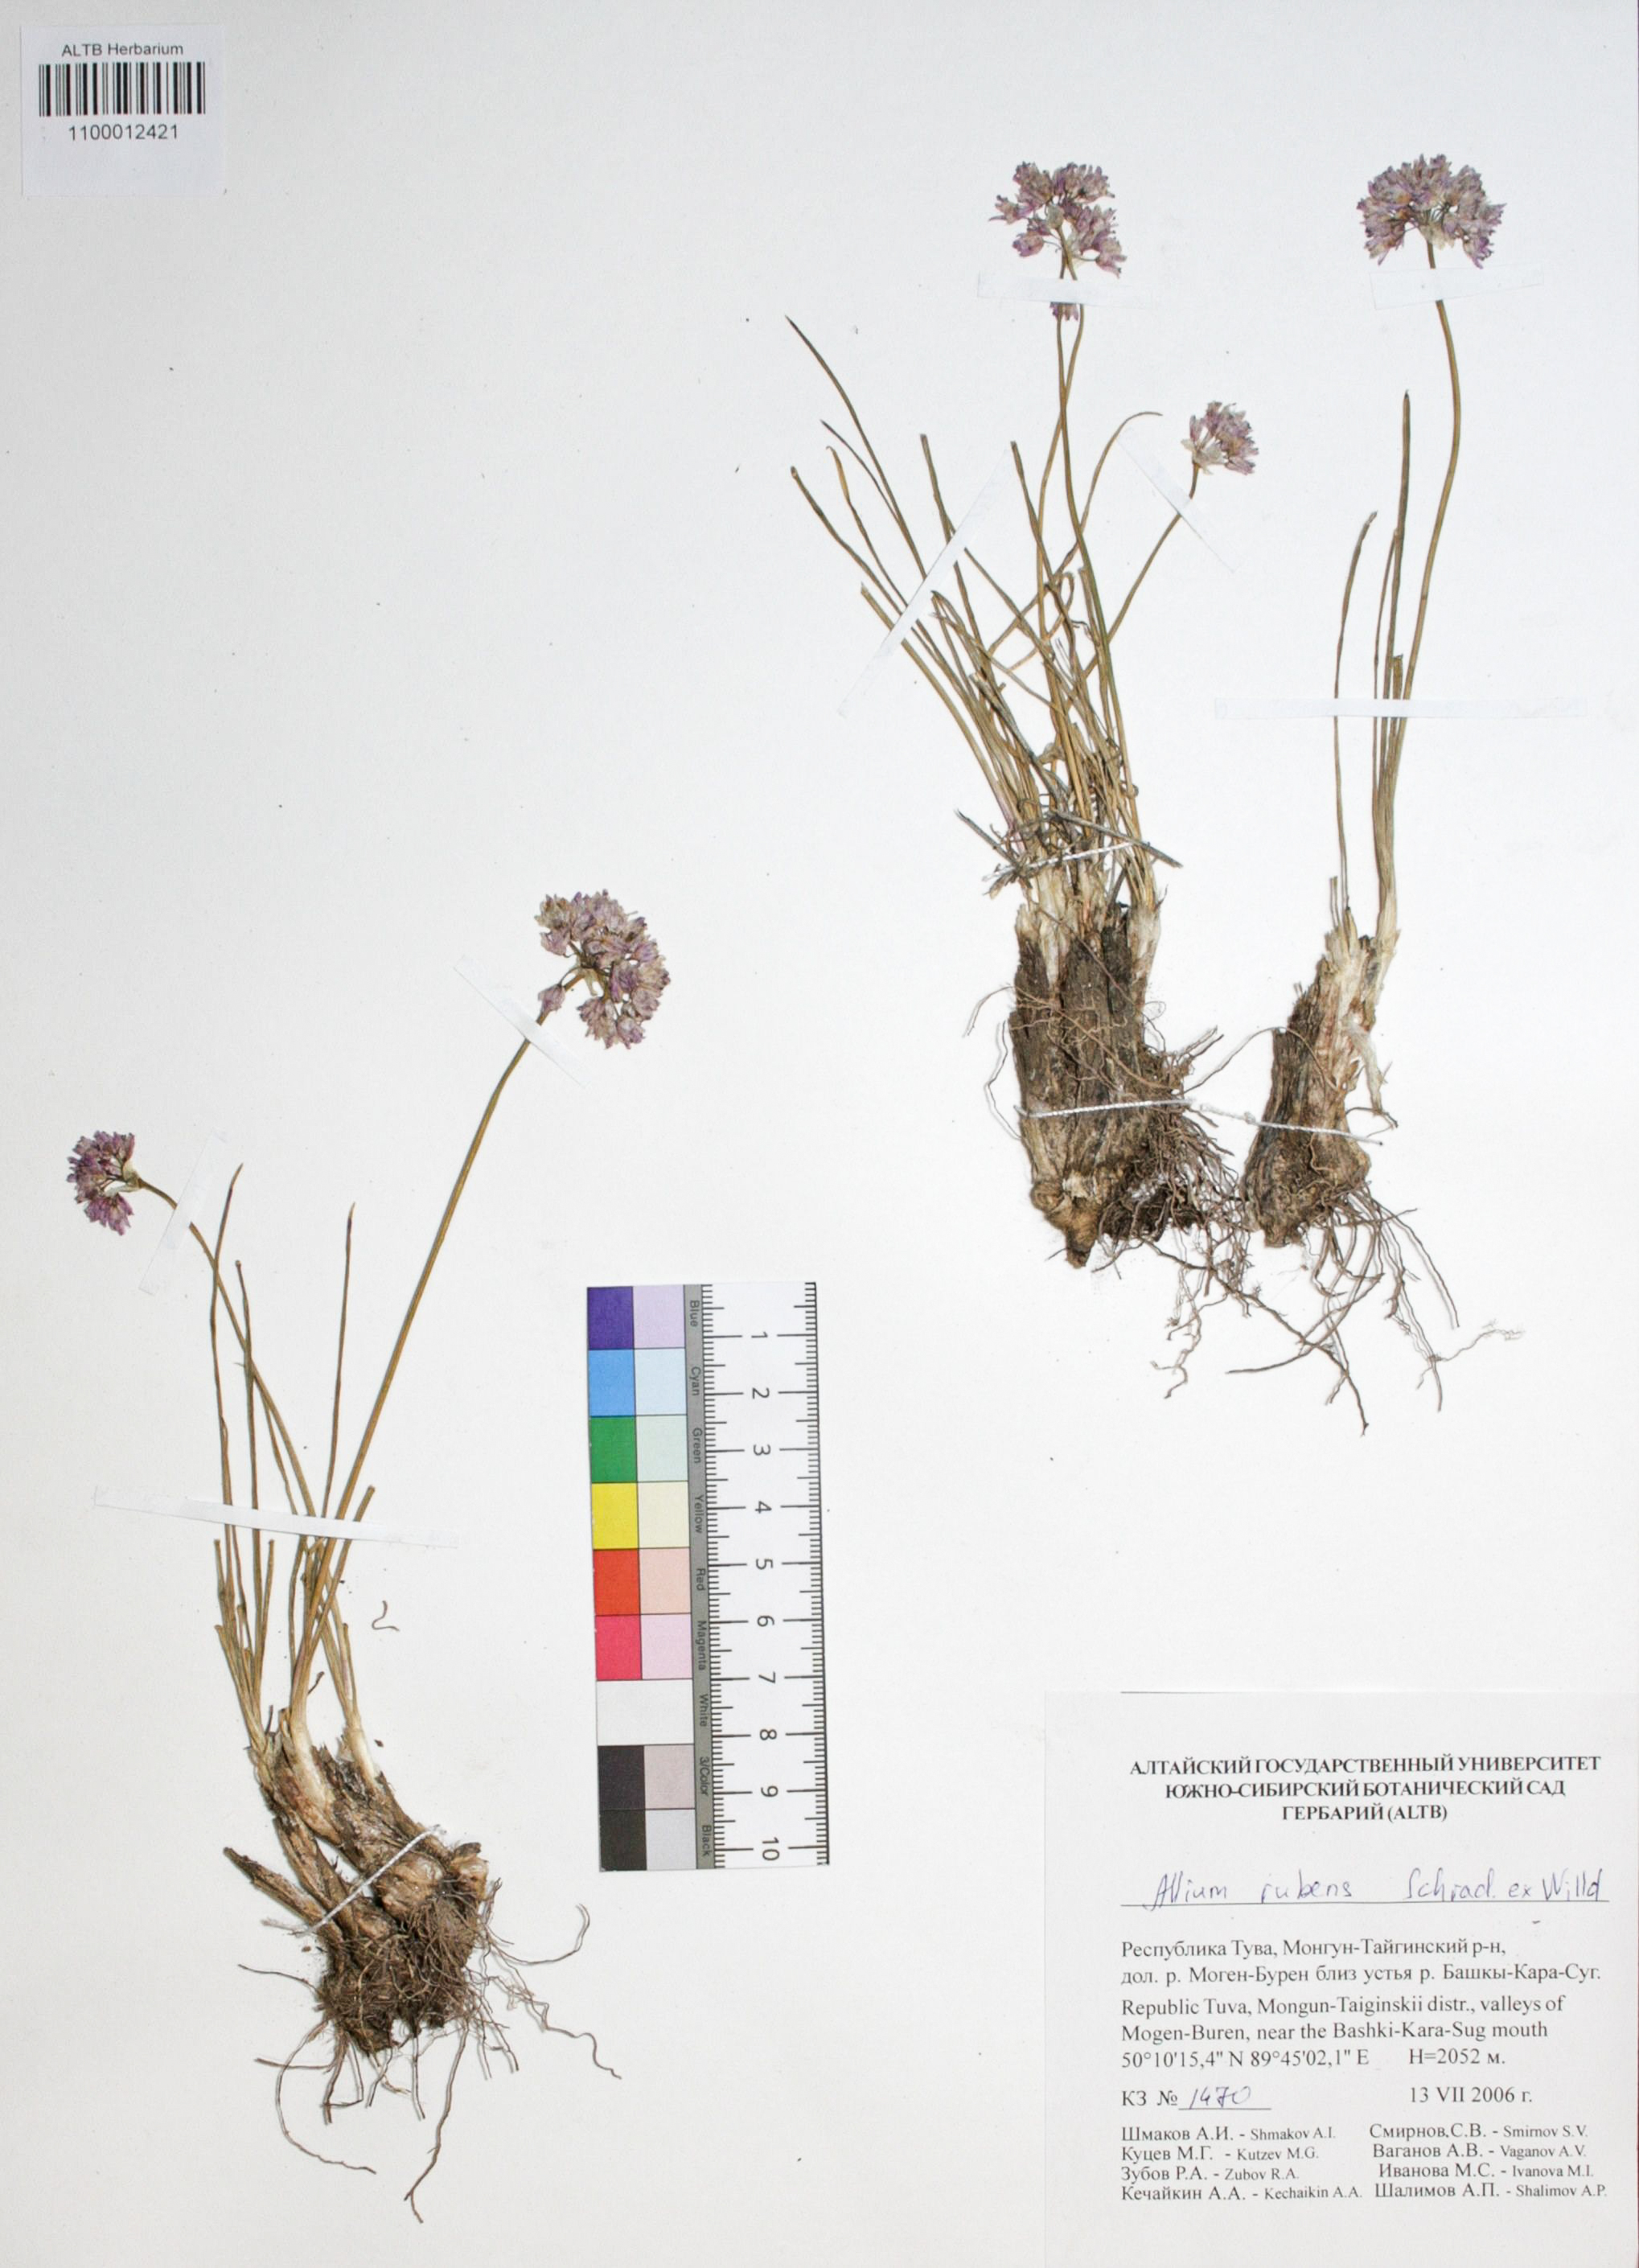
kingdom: Plantae
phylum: Tracheophyta
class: Liliopsida
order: Asparagales
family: Amaryllidaceae
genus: Allium
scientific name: Allium rubens
